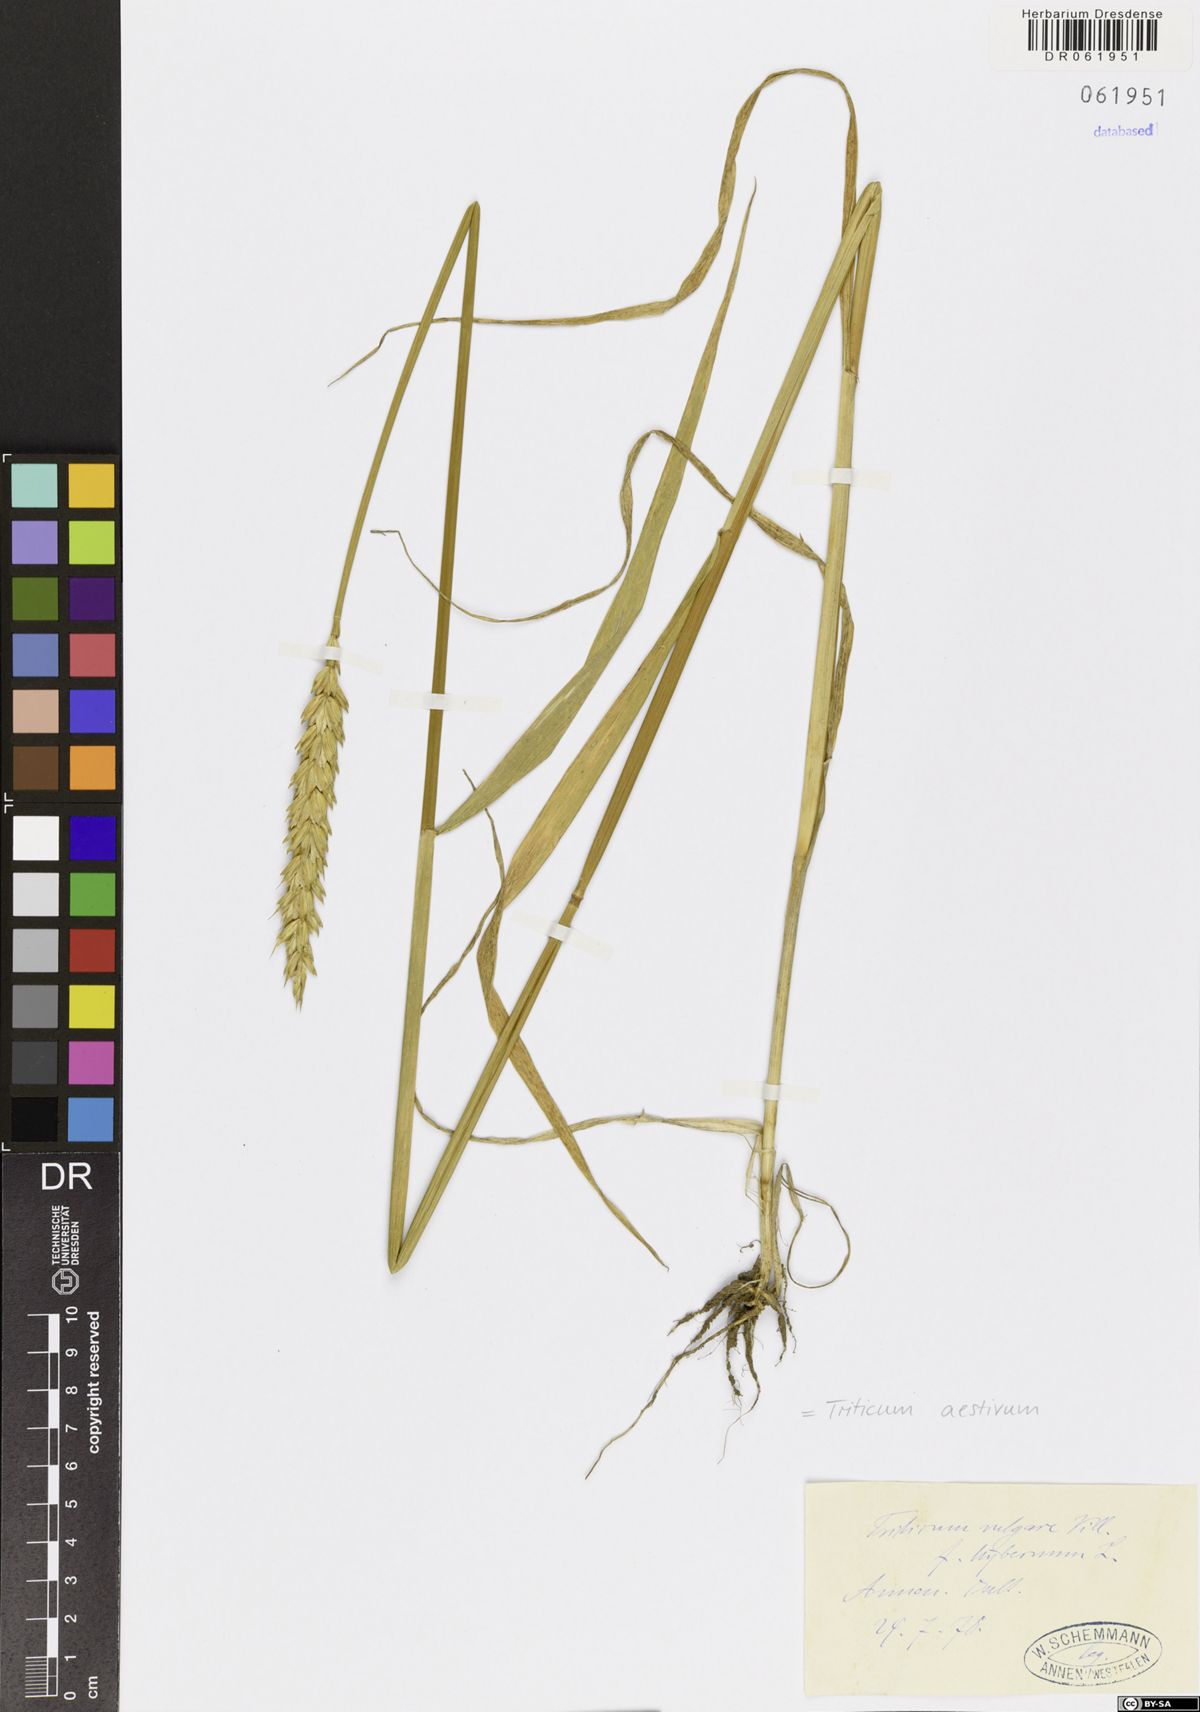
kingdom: Plantae
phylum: Tracheophyta
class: Liliopsida
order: Poales
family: Poaceae
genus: Triticum
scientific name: Triticum aestivum
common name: Common wheat
